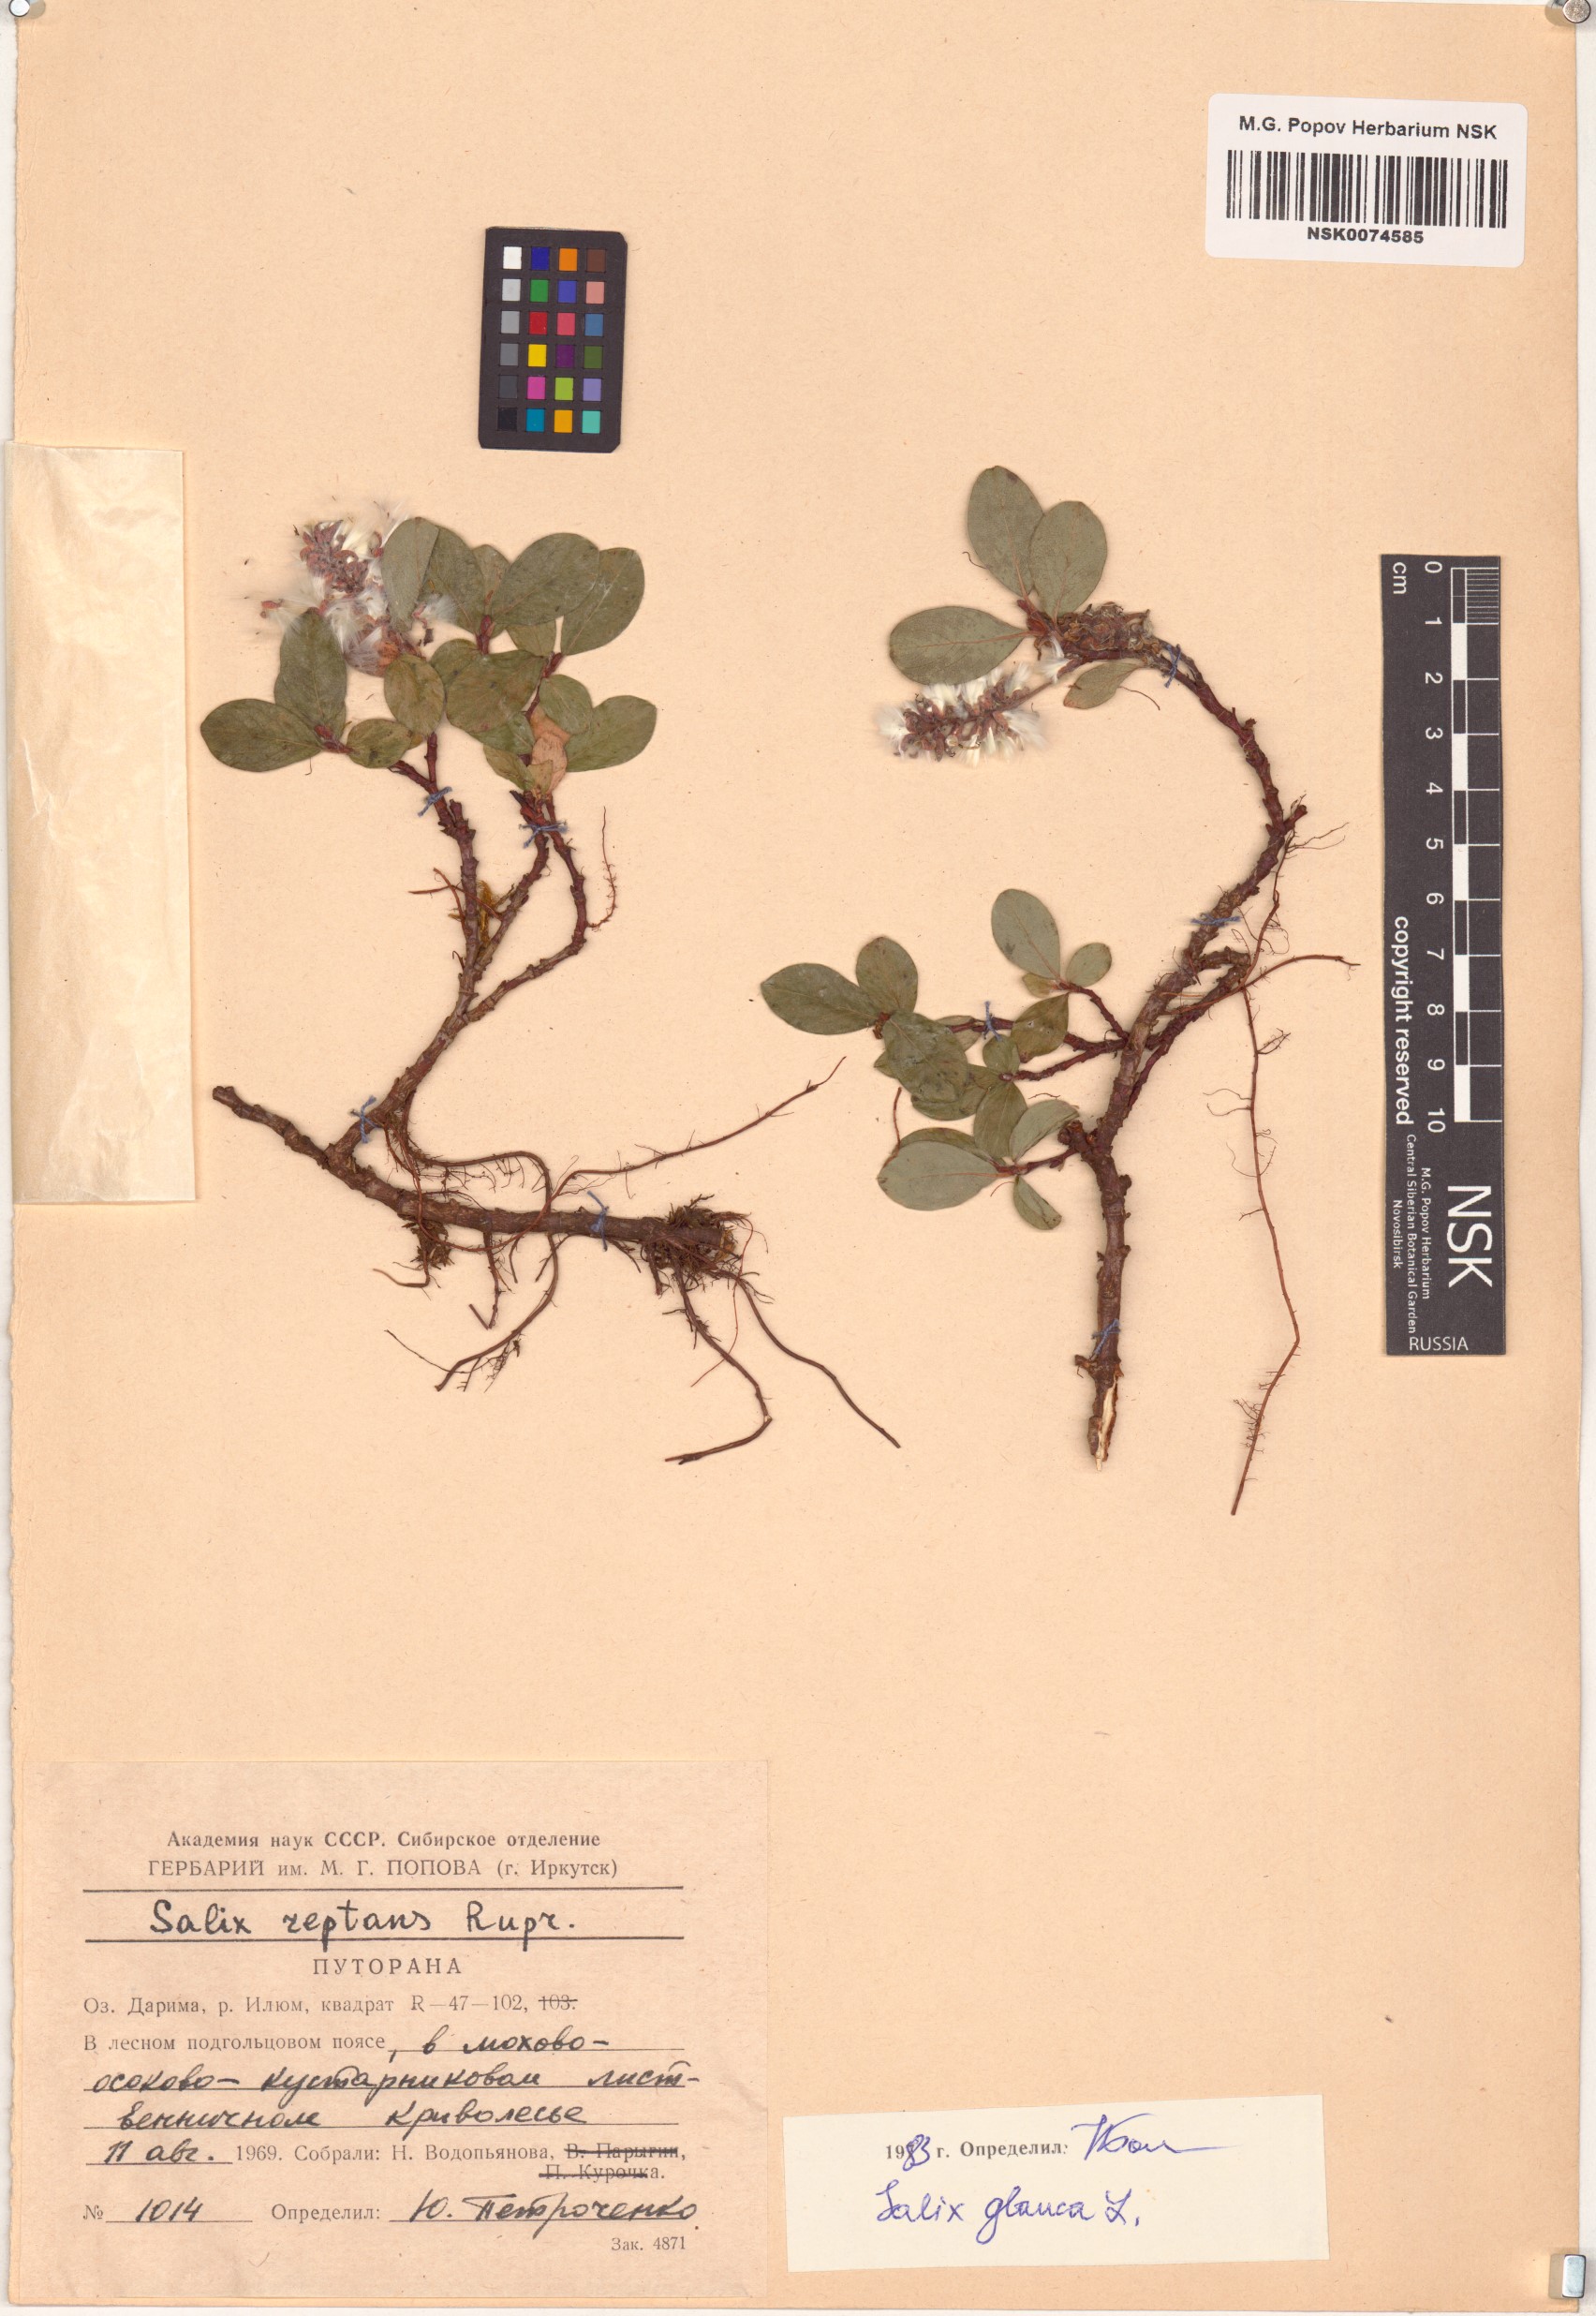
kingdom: Plantae
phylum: Tracheophyta
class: Magnoliopsida
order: Malpighiales
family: Salicaceae
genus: Salix
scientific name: Salix glauca
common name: Glaucous willow
